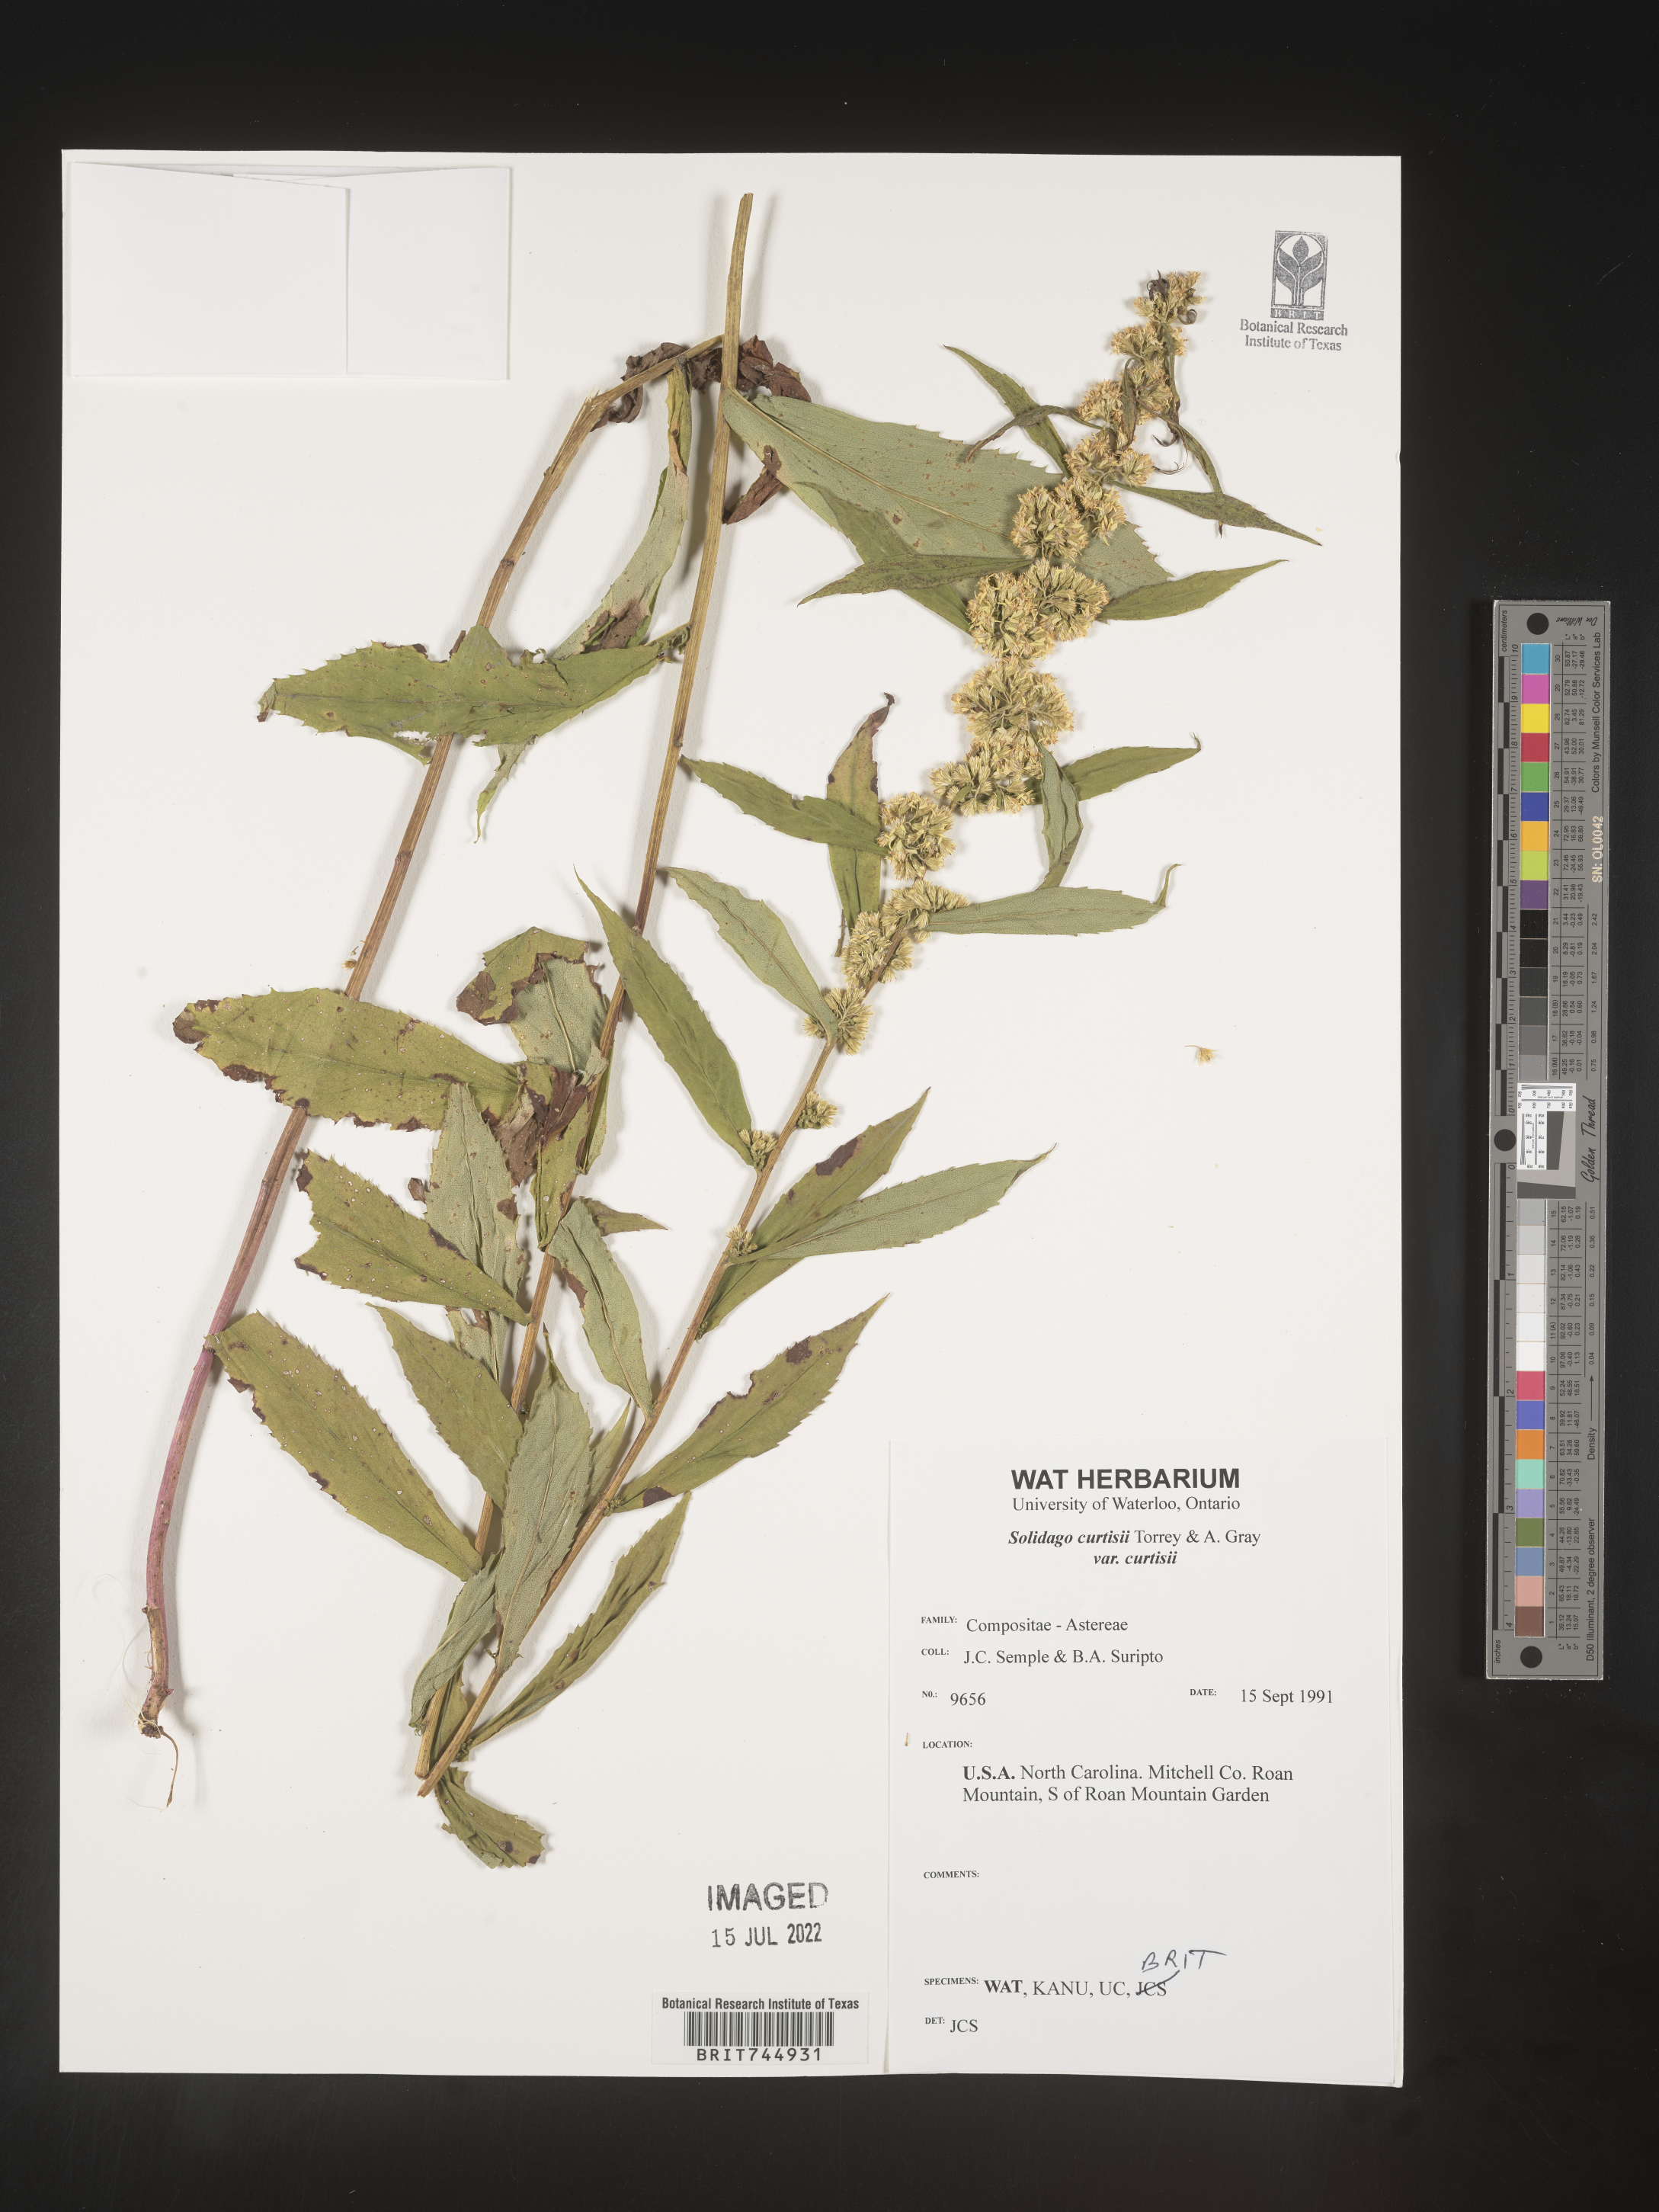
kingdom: Plantae
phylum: Tracheophyta
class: Magnoliopsida
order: Asterales
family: Asteraceae
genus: Solidago
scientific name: Solidago
